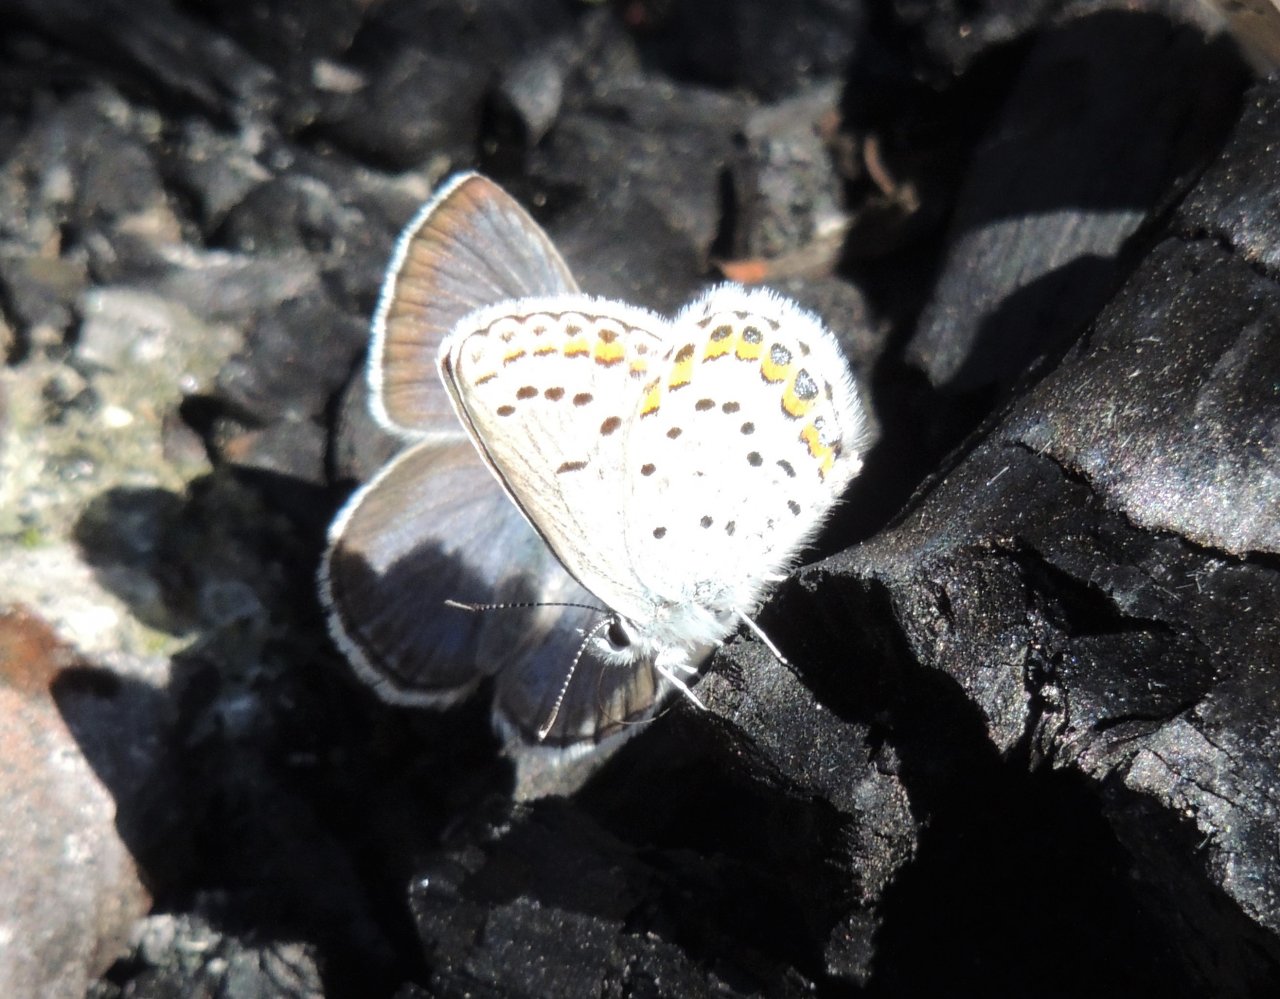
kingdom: Animalia
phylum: Arthropoda
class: Insecta
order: Lepidoptera
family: Lycaenidae
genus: Lycaeides
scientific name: Lycaeides idas
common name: Northern Blue
